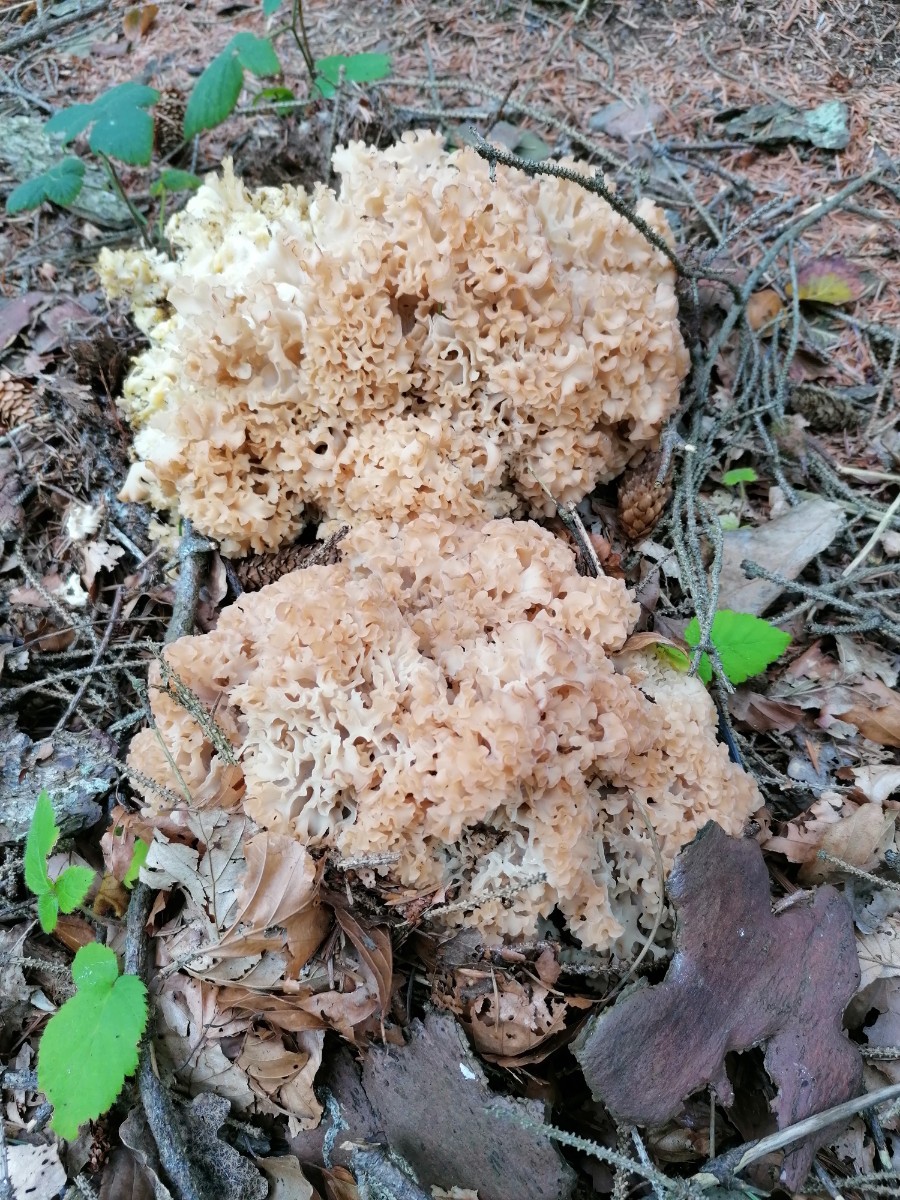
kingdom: Fungi
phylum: Basidiomycota
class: Agaricomycetes
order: Polyporales
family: Sparassidaceae
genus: Sparassis
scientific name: Sparassis crispa
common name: kruset blomkålssvamp
